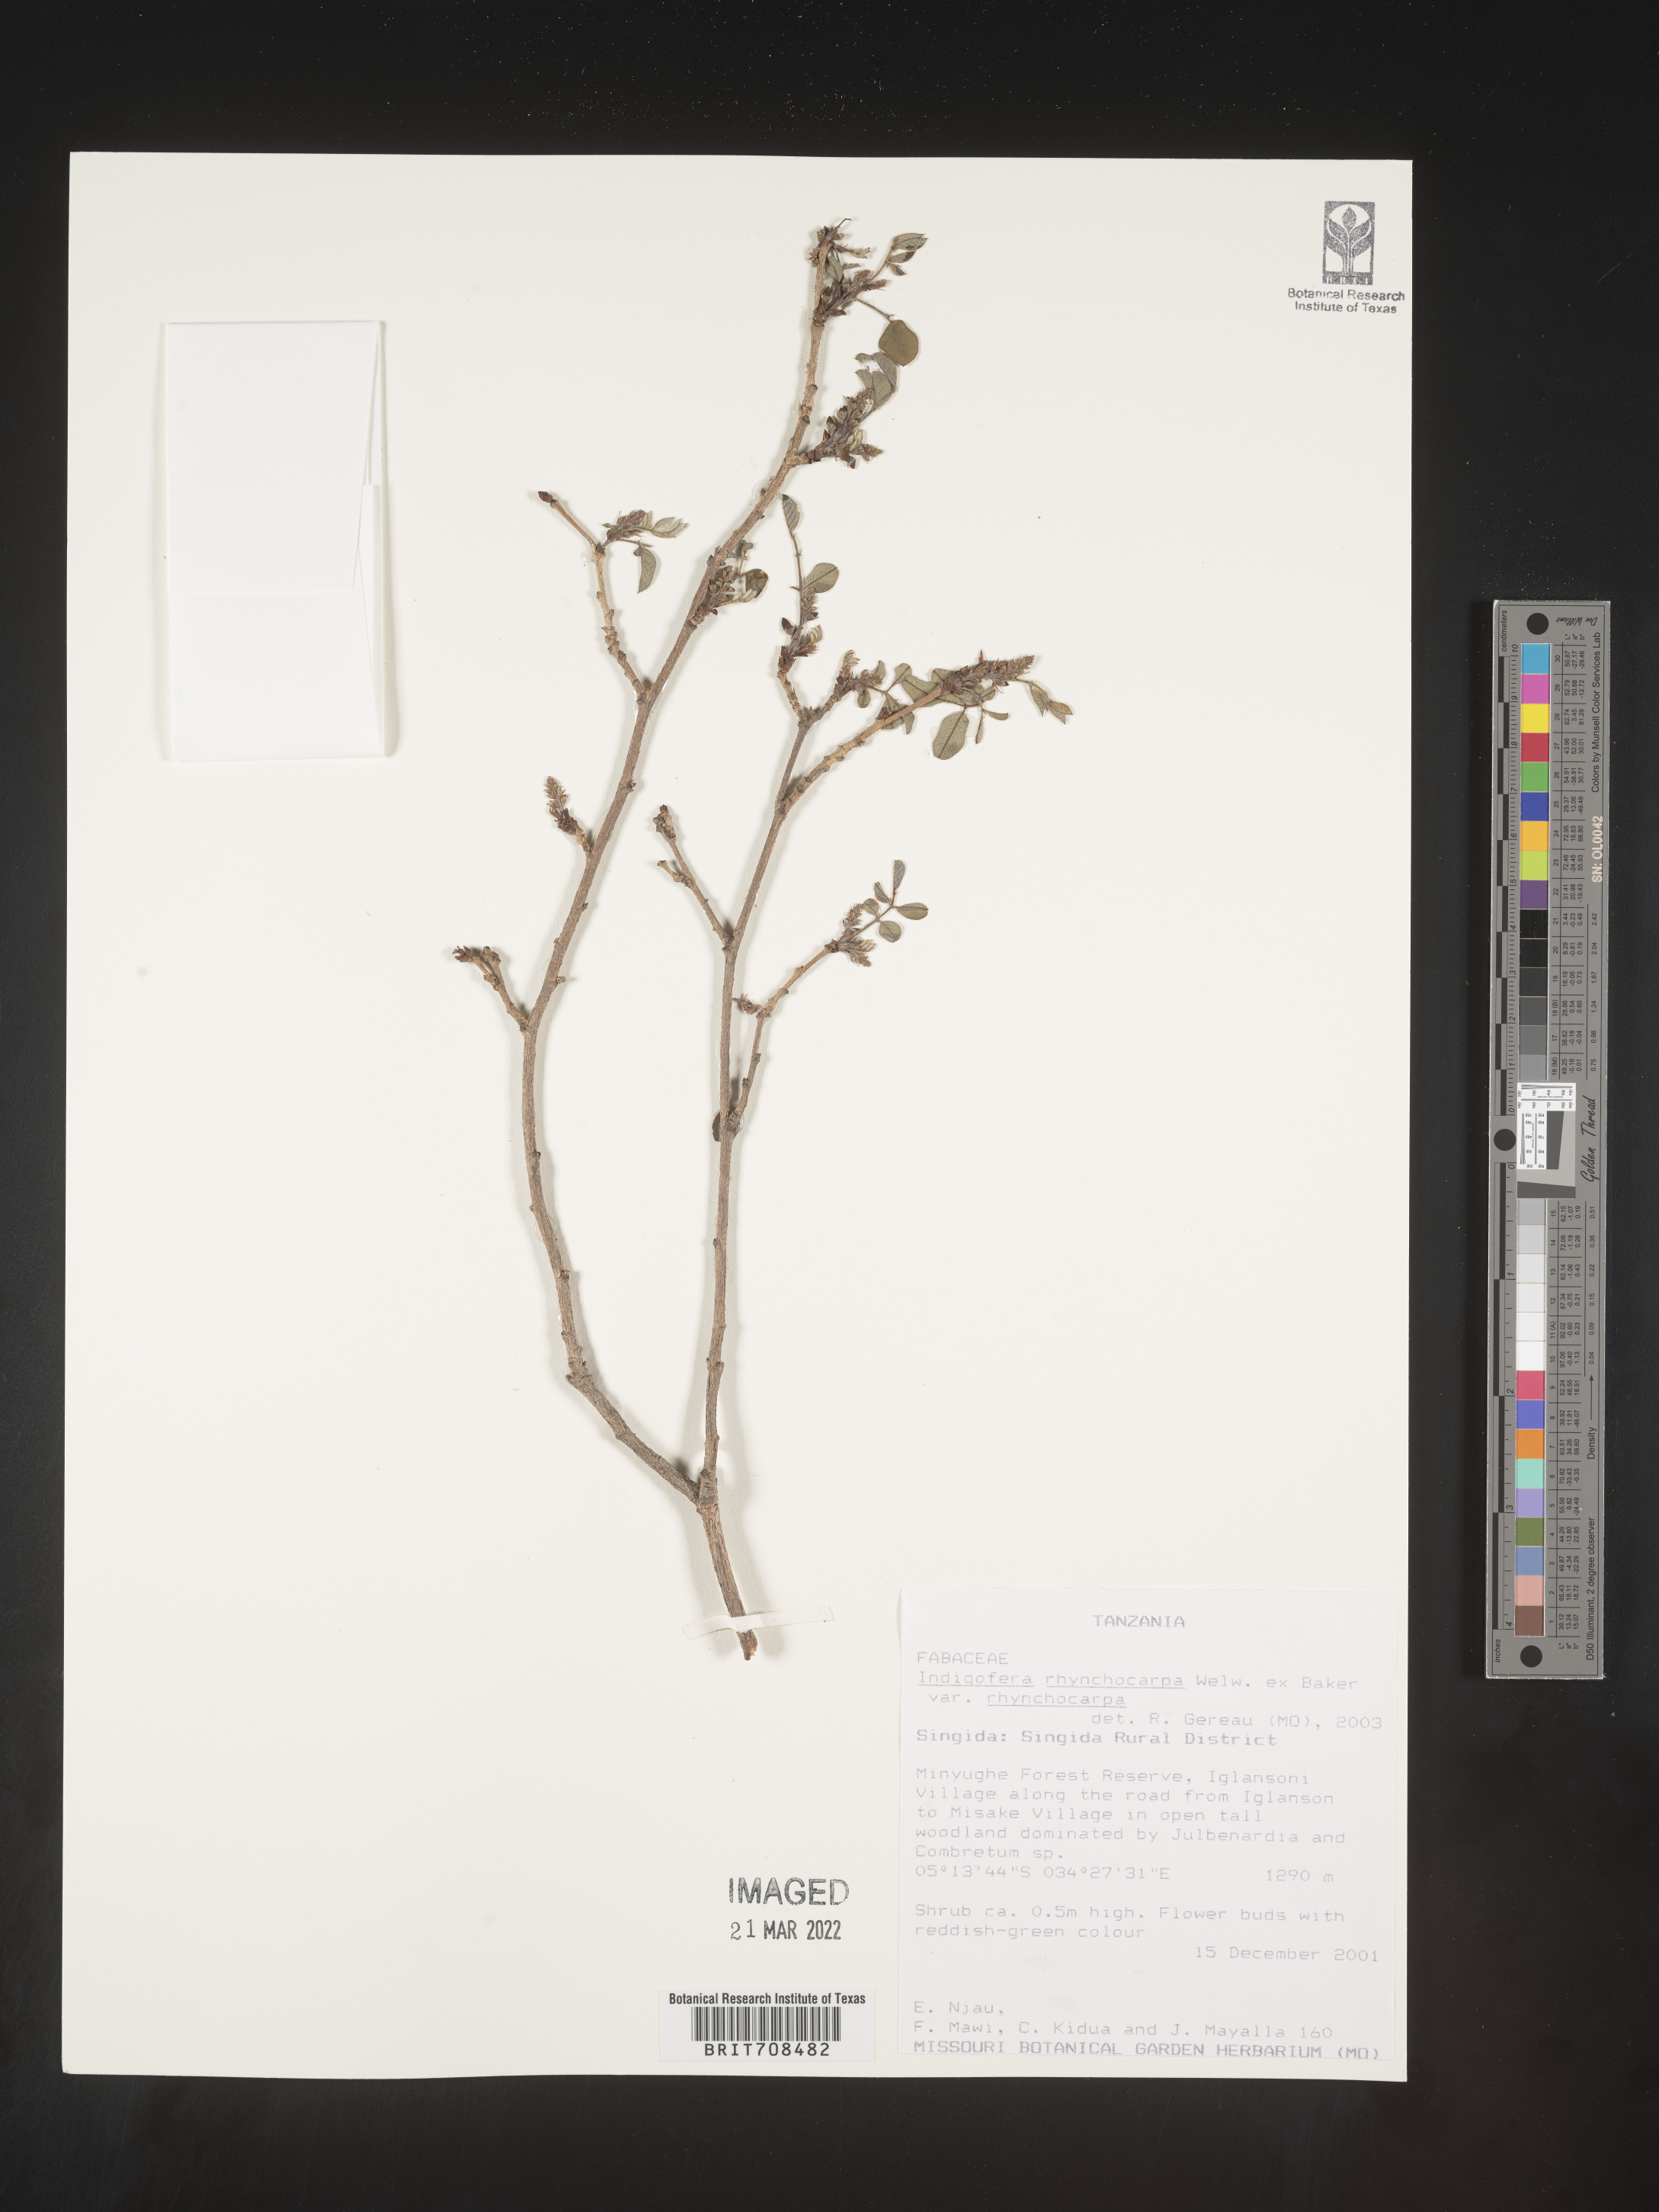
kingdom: Plantae
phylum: Tracheophyta
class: Magnoliopsida
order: Fabales
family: Fabaceae
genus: Indigofera
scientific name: Indigofera
